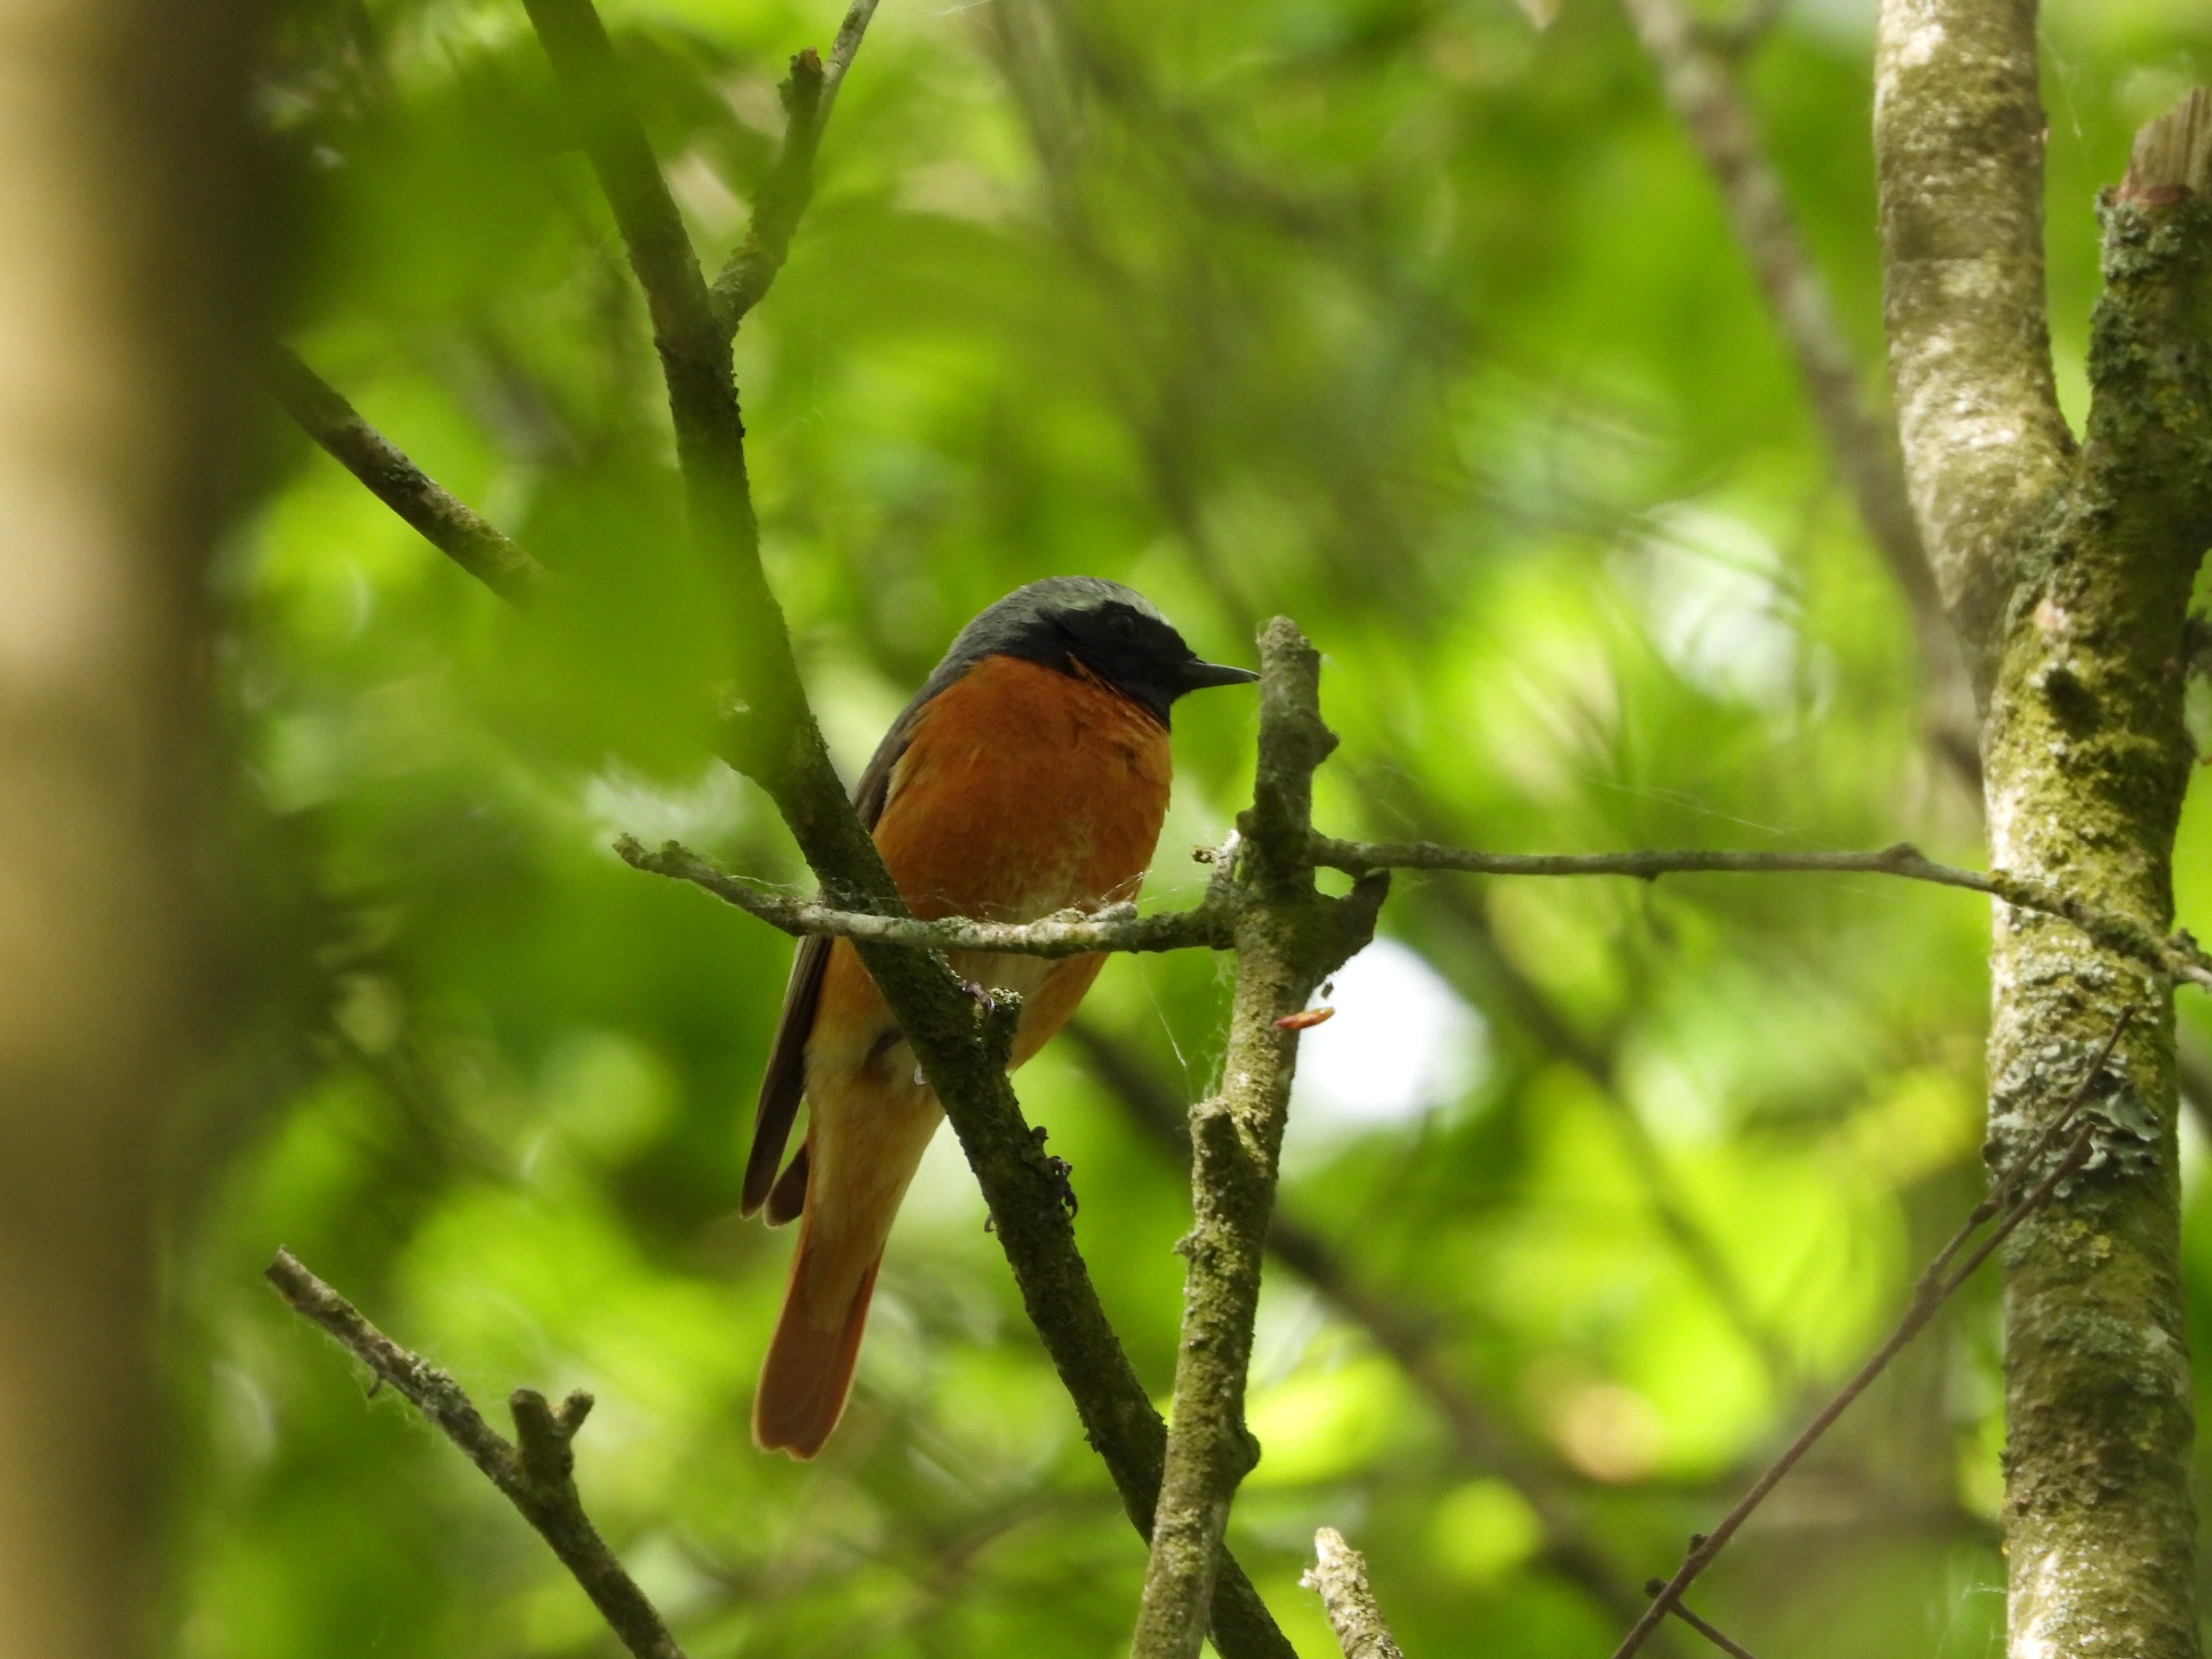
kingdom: Animalia
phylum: Chordata
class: Aves
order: Passeriformes
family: Muscicapidae
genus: Phoenicurus
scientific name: Phoenicurus phoenicurus
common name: Rødstjert
